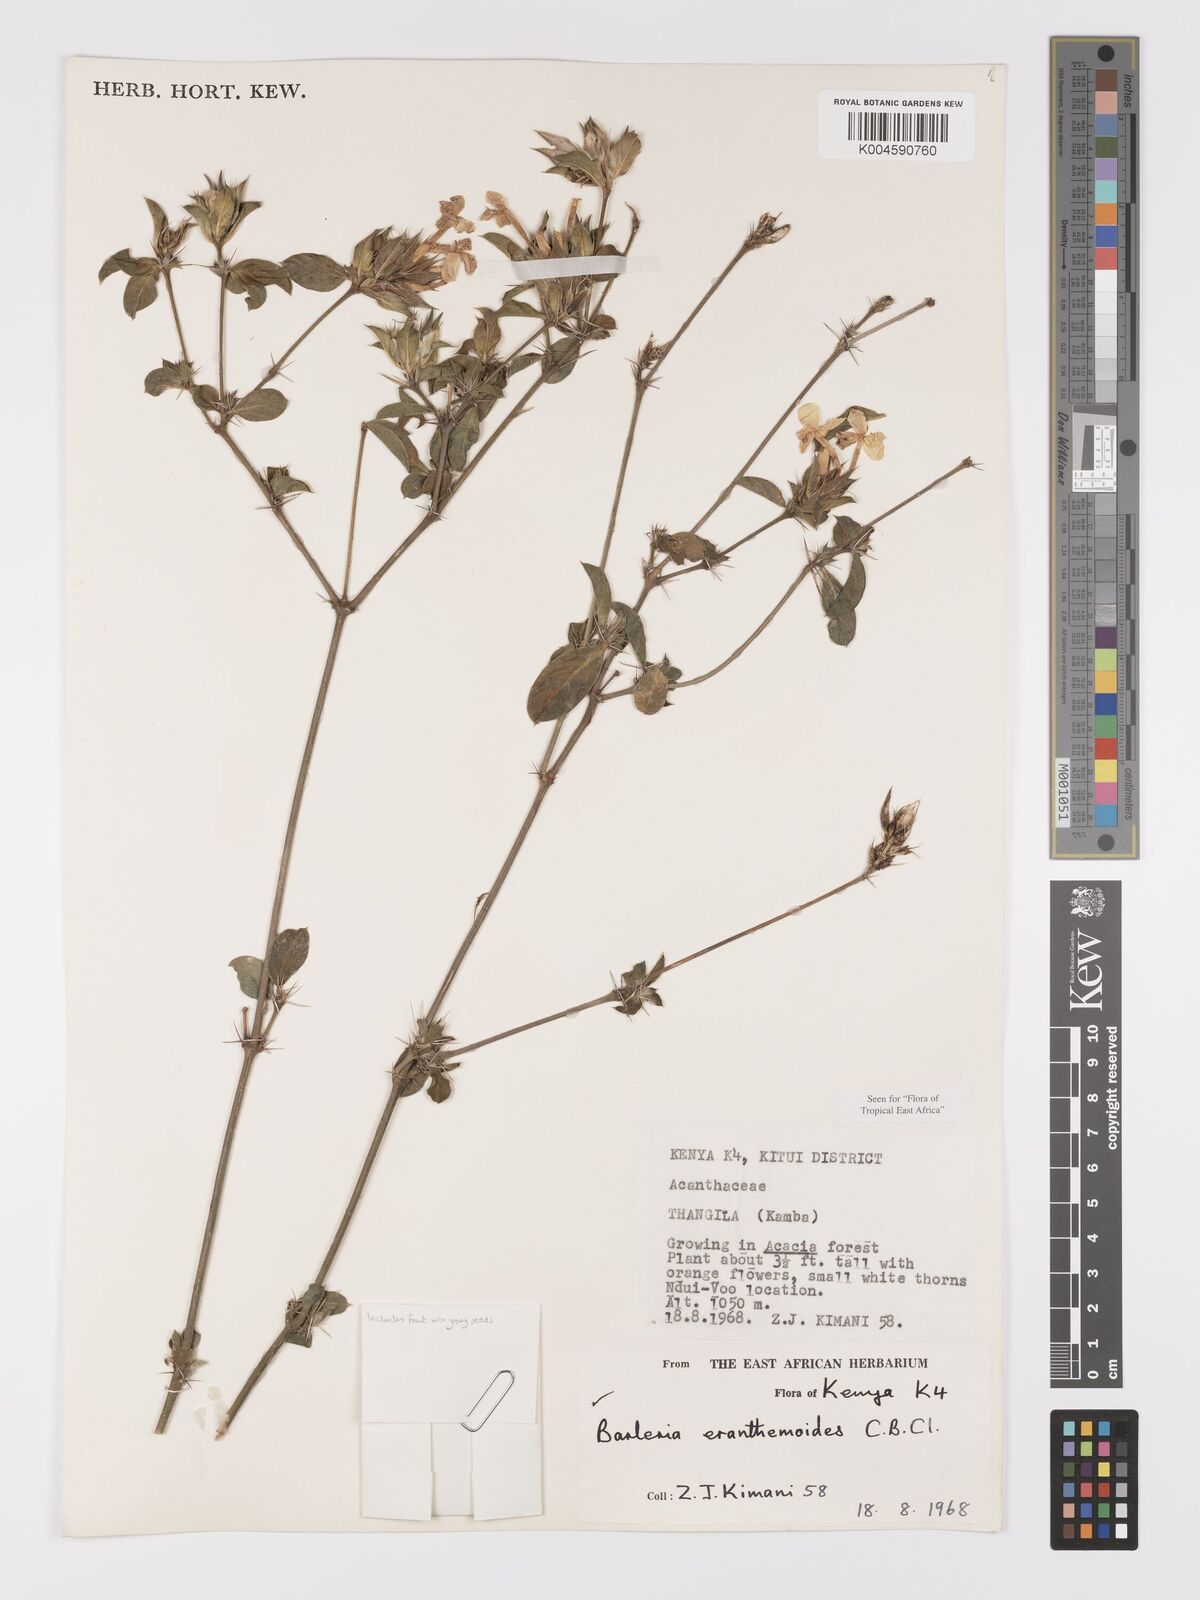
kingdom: Plantae
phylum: Tracheophyta
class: Magnoliopsida
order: Lamiales
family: Acanthaceae
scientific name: Acanthaceae
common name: Acanthaceae
